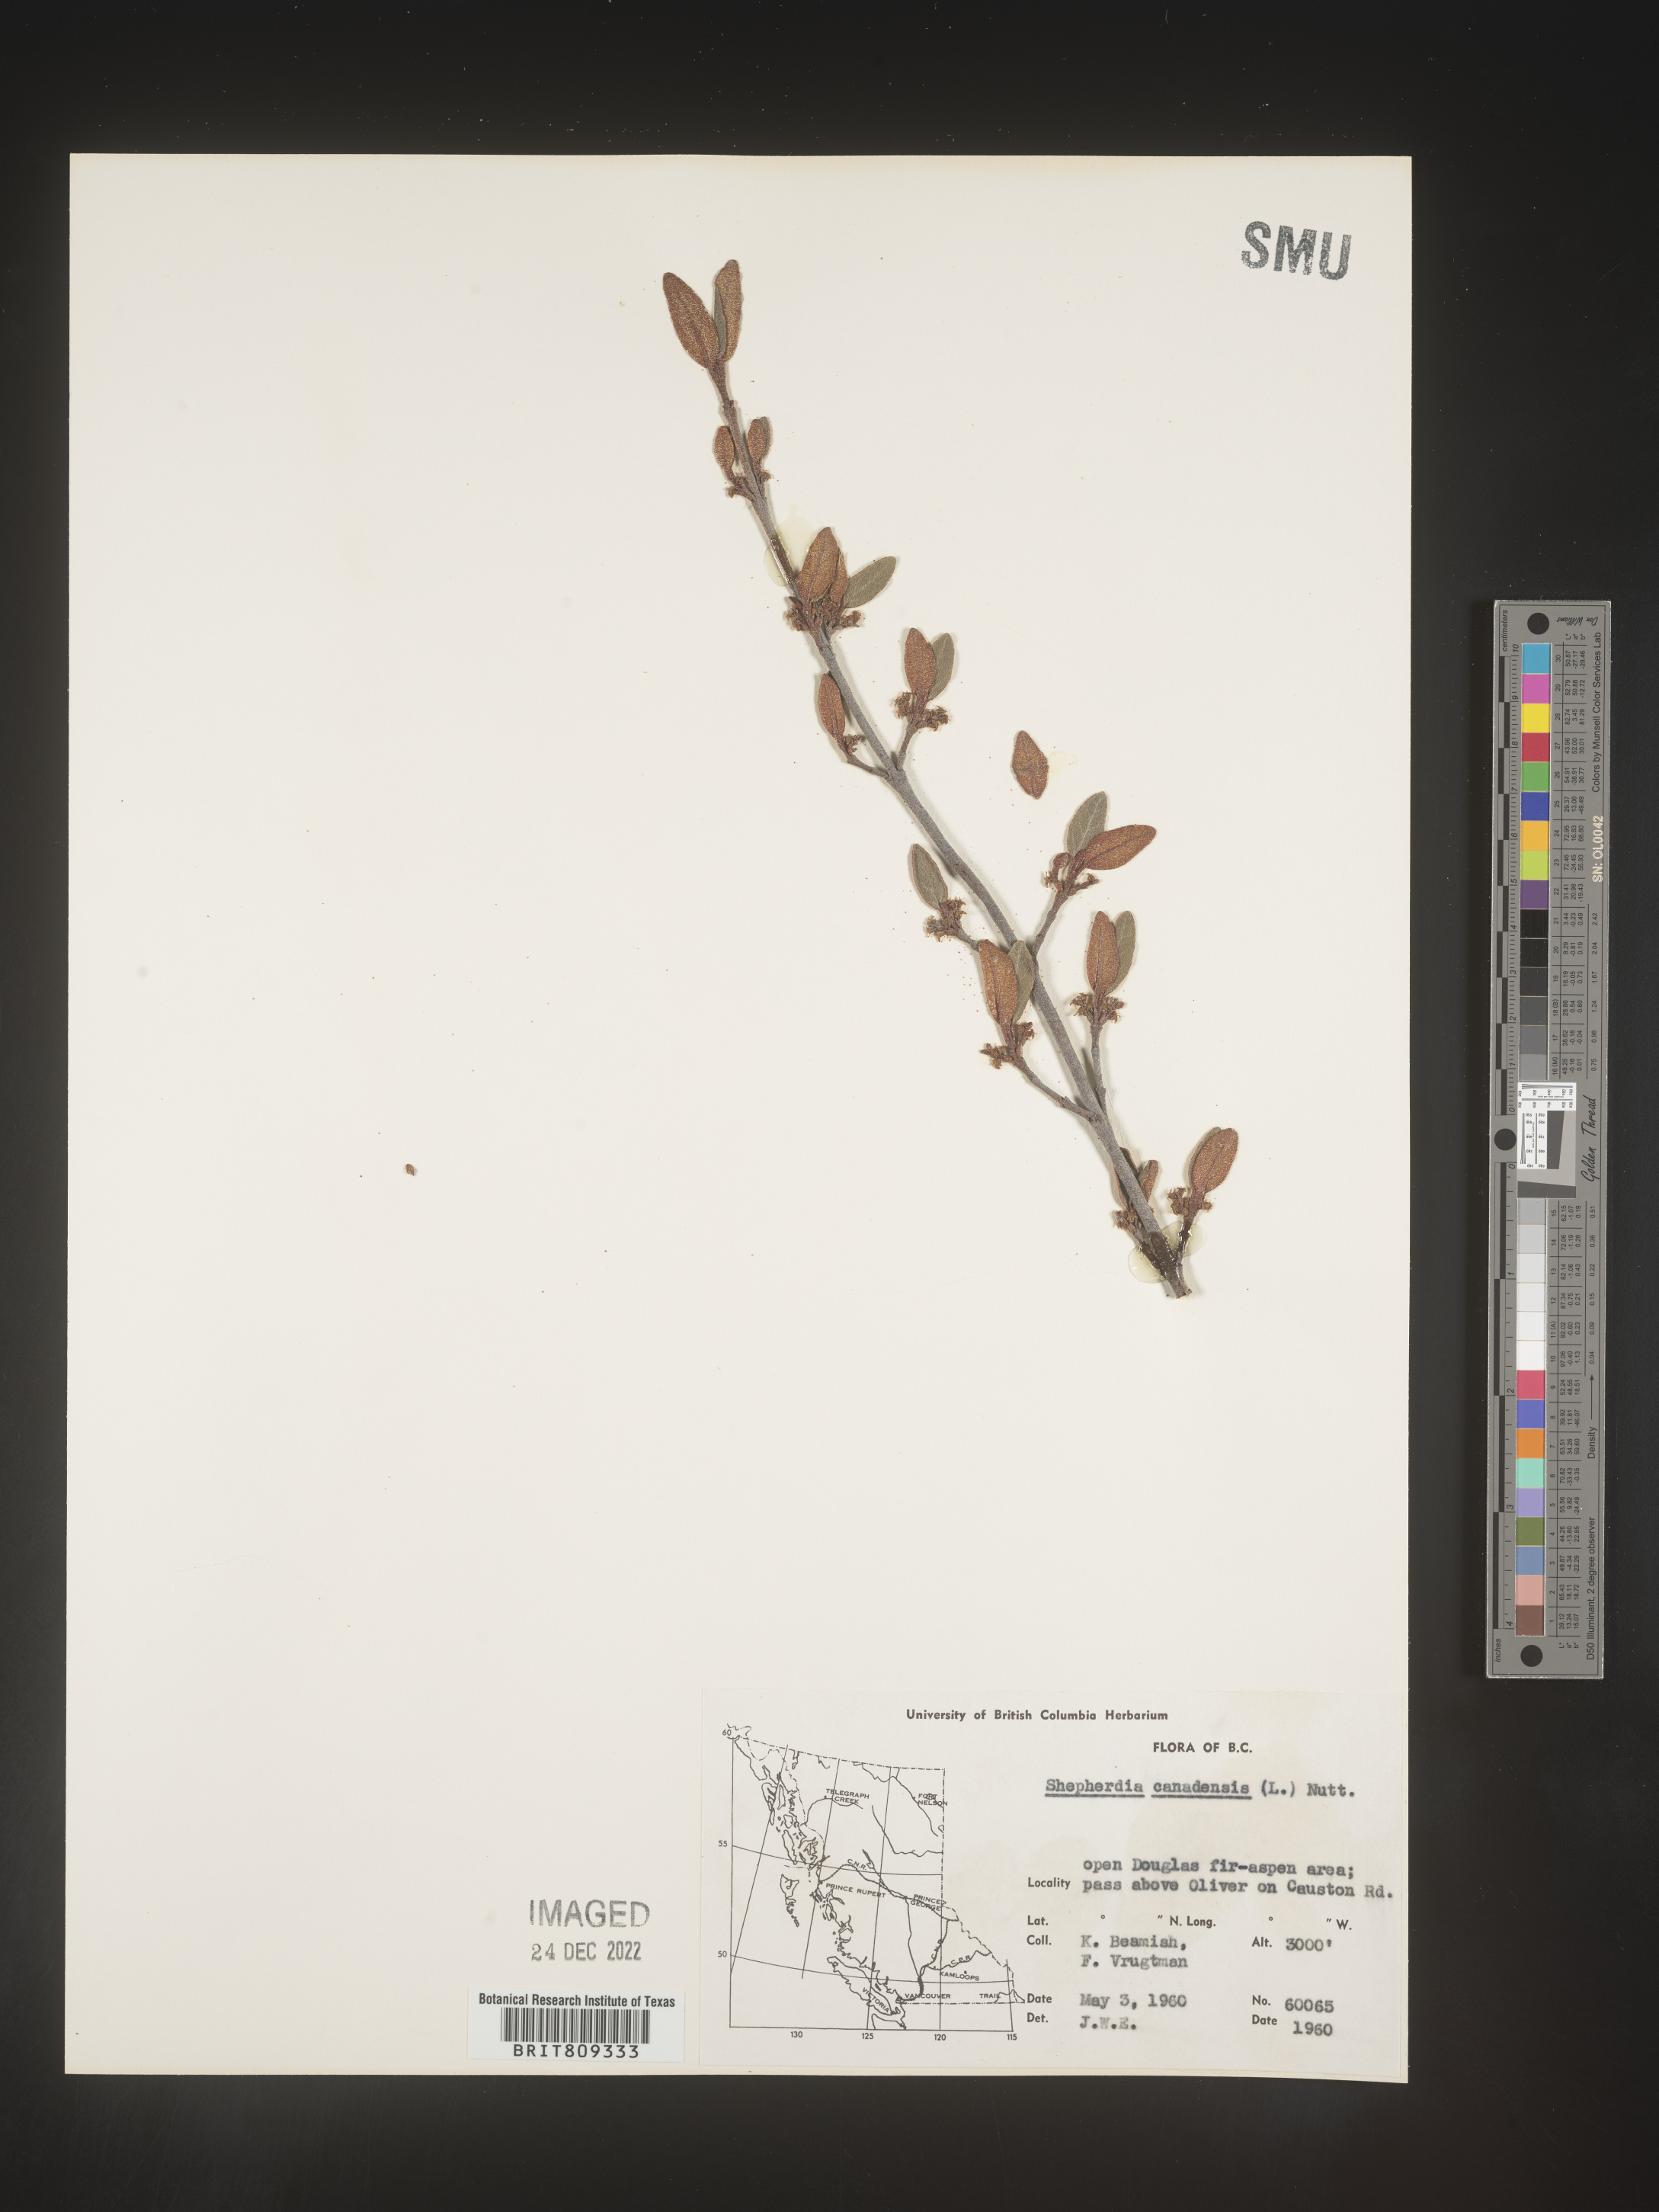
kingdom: Plantae
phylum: Tracheophyta
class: Magnoliopsida
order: Rosales
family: Elaeagnaceae
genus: Shepherdia
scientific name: Shepherdia canadensis
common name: Soapberry
